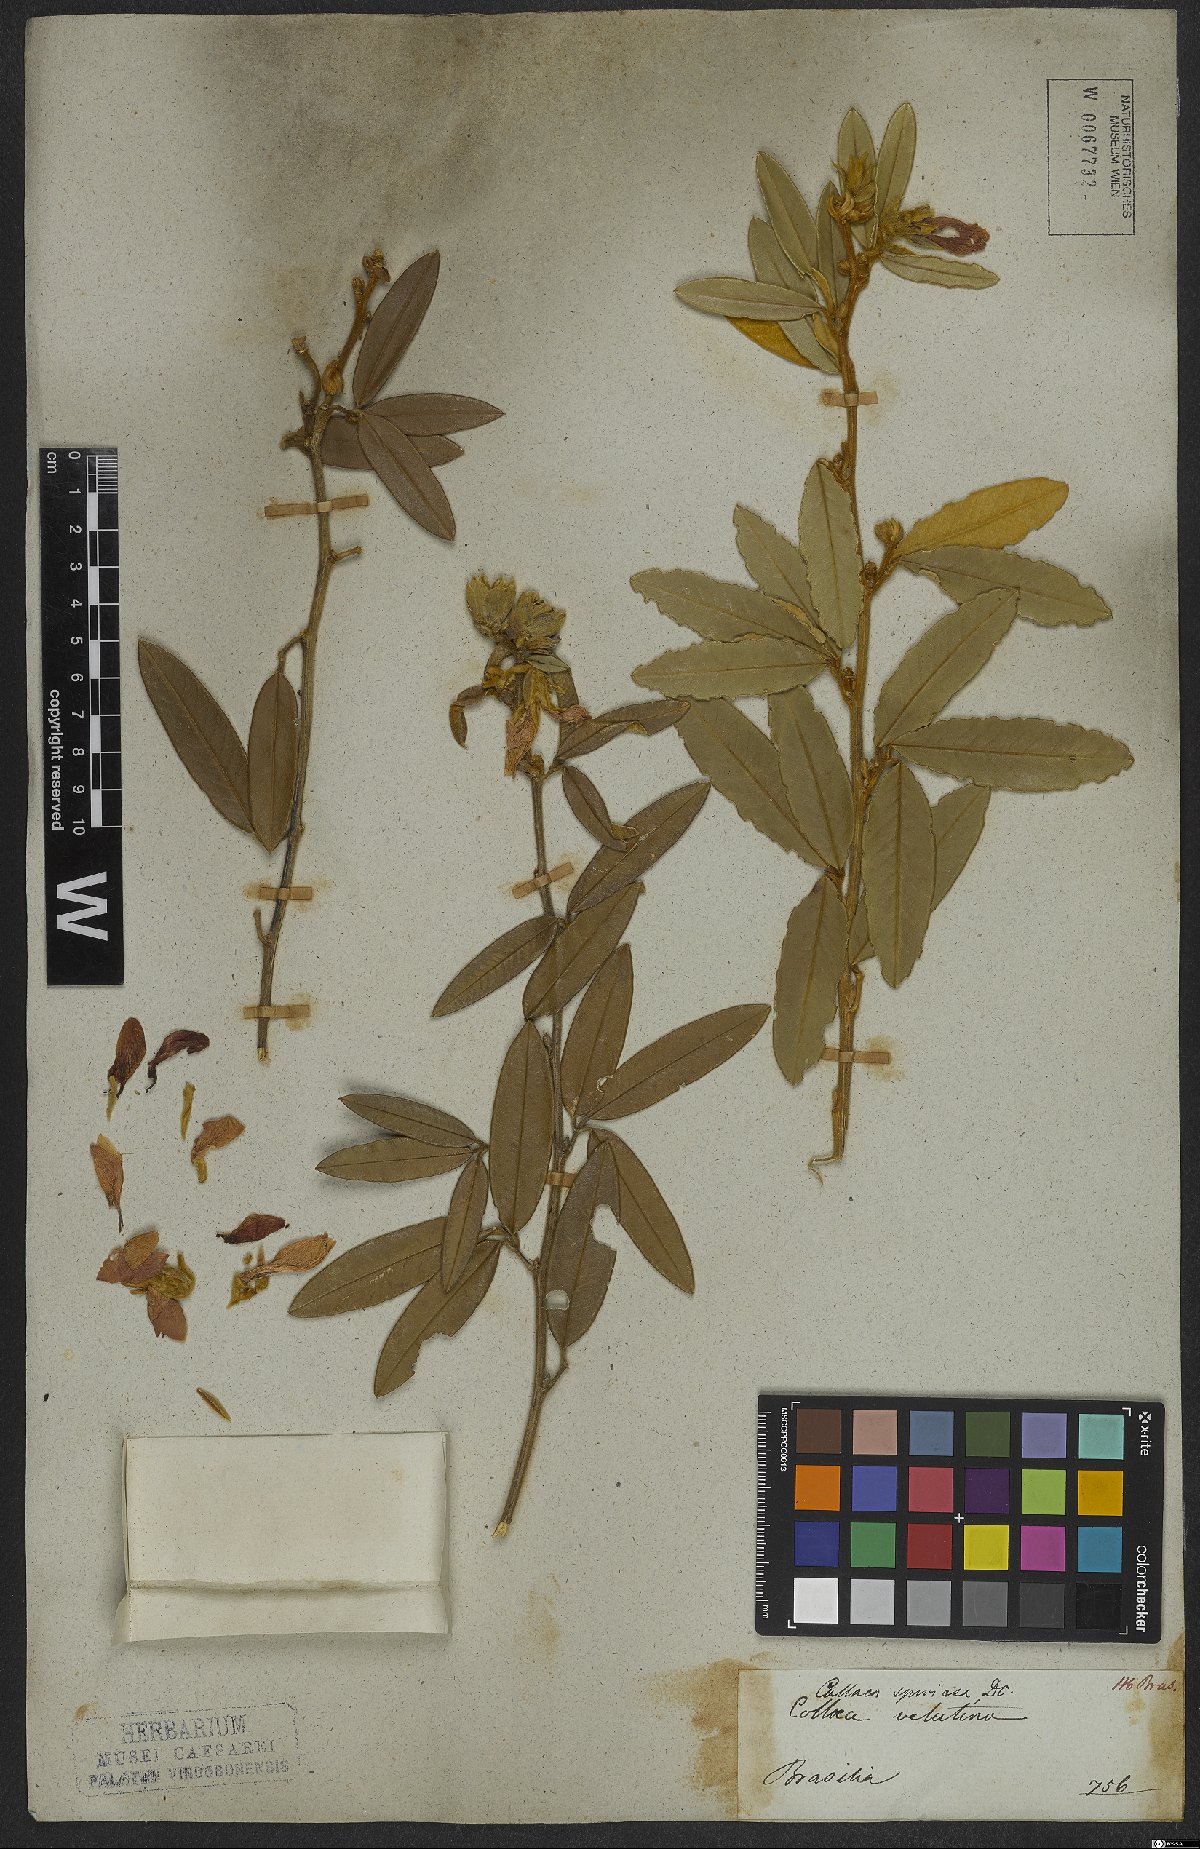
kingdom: Plantae
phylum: Tracheophyta
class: Magnoliopsida
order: Fabales
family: Fabaceae
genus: Collaea
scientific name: Collaea speciosa
